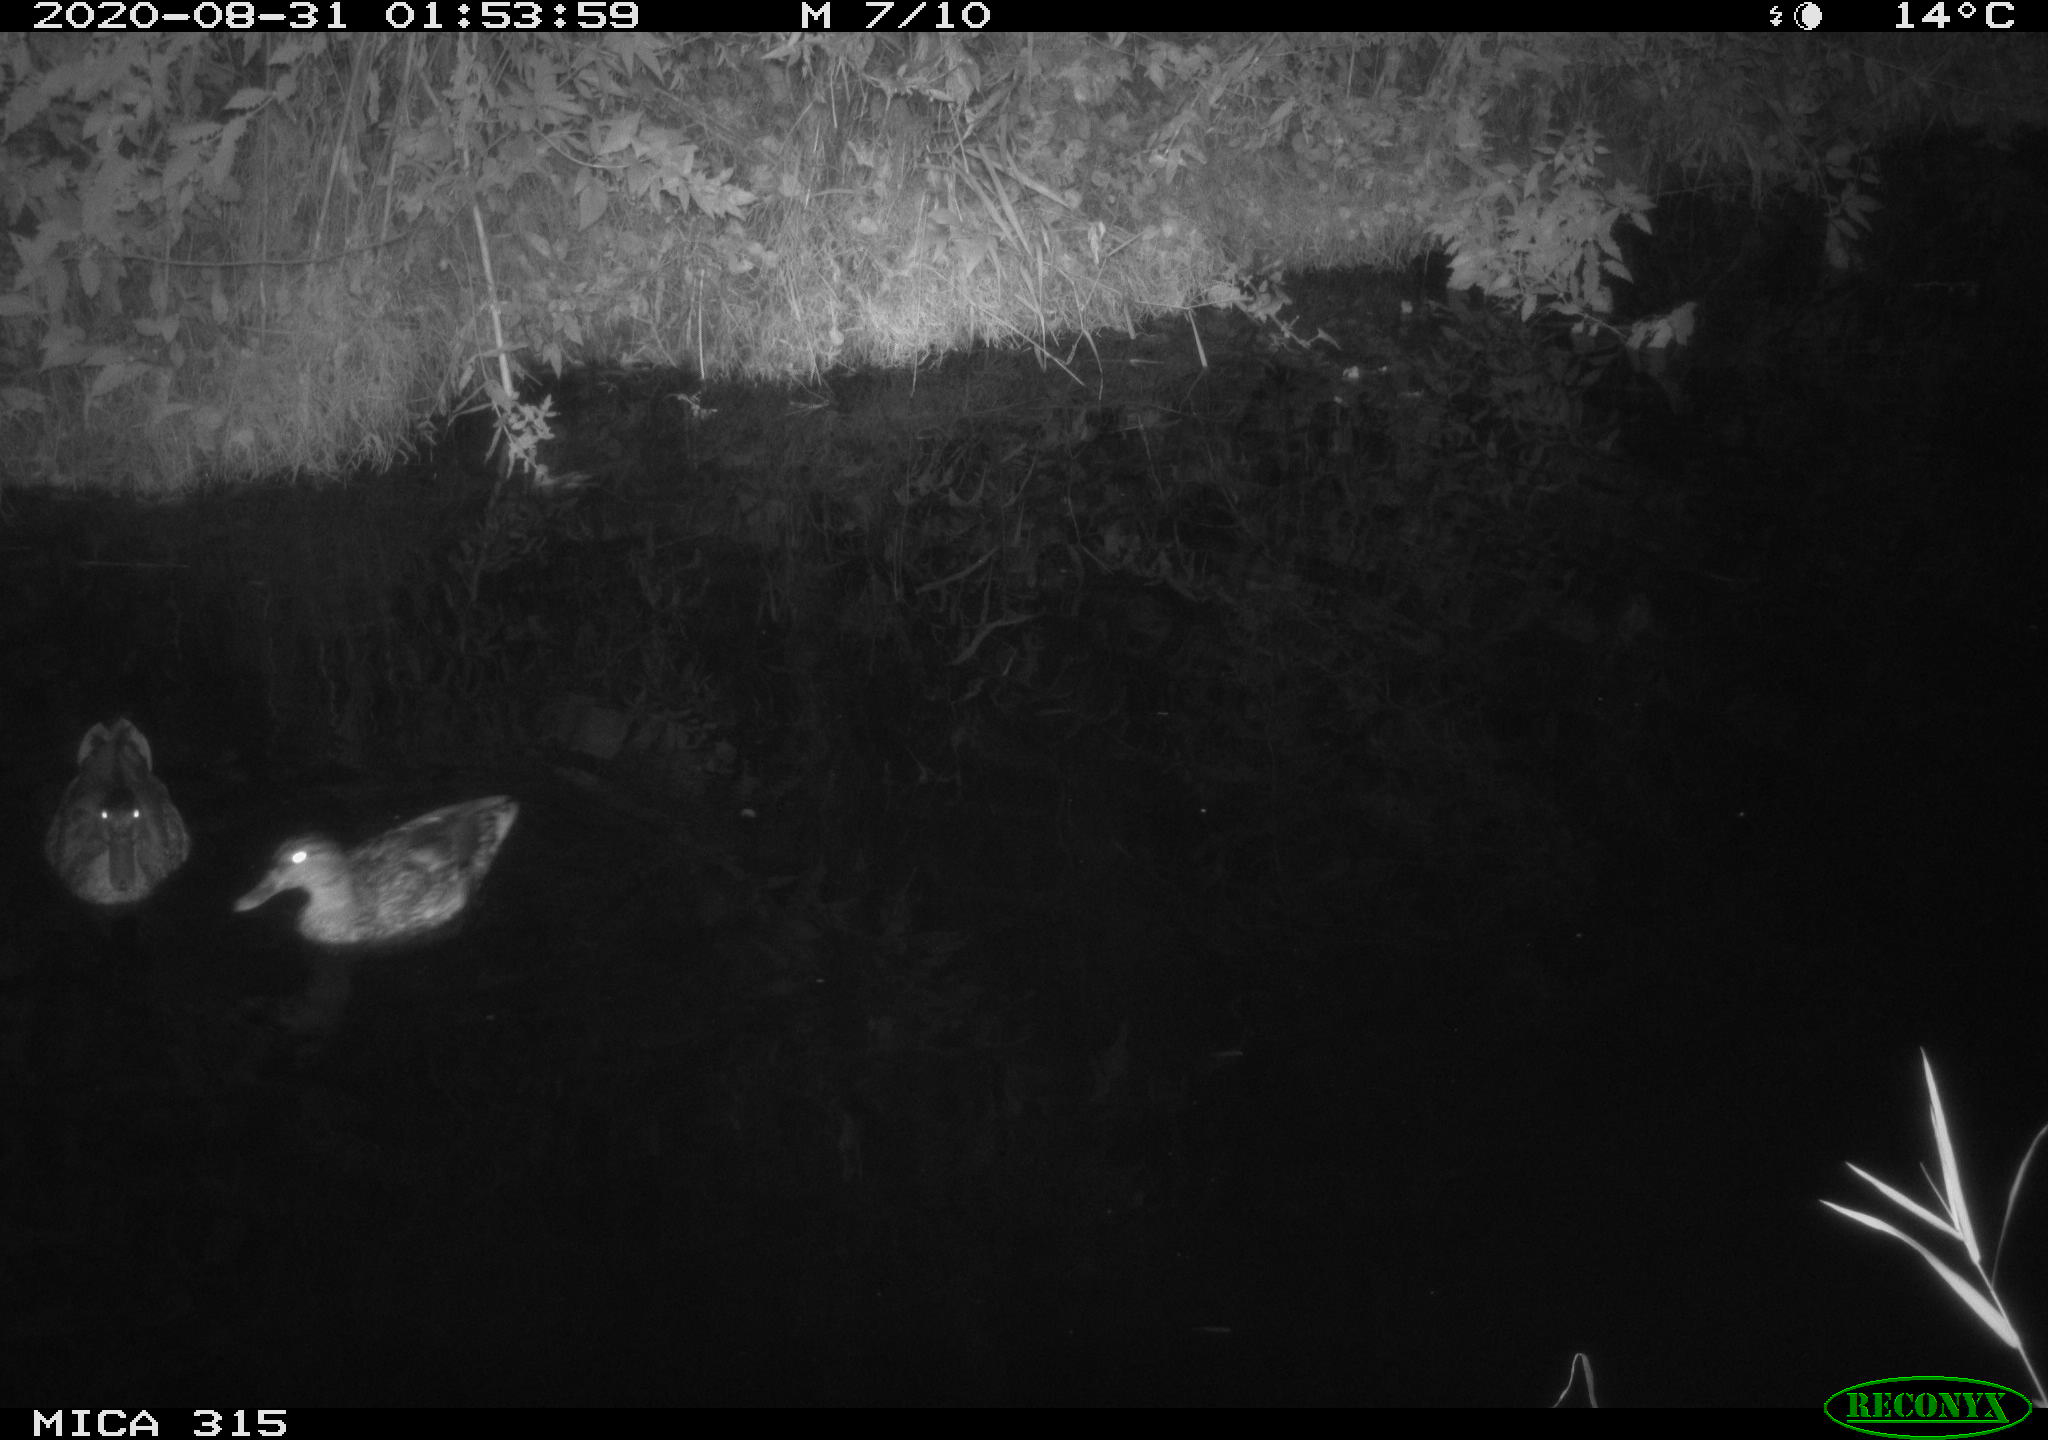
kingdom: Animalia
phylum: Chordata
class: Aves
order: Anseriformes
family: Anatidae
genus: Anas
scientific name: Anas platyrhynchos
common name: Mallard
